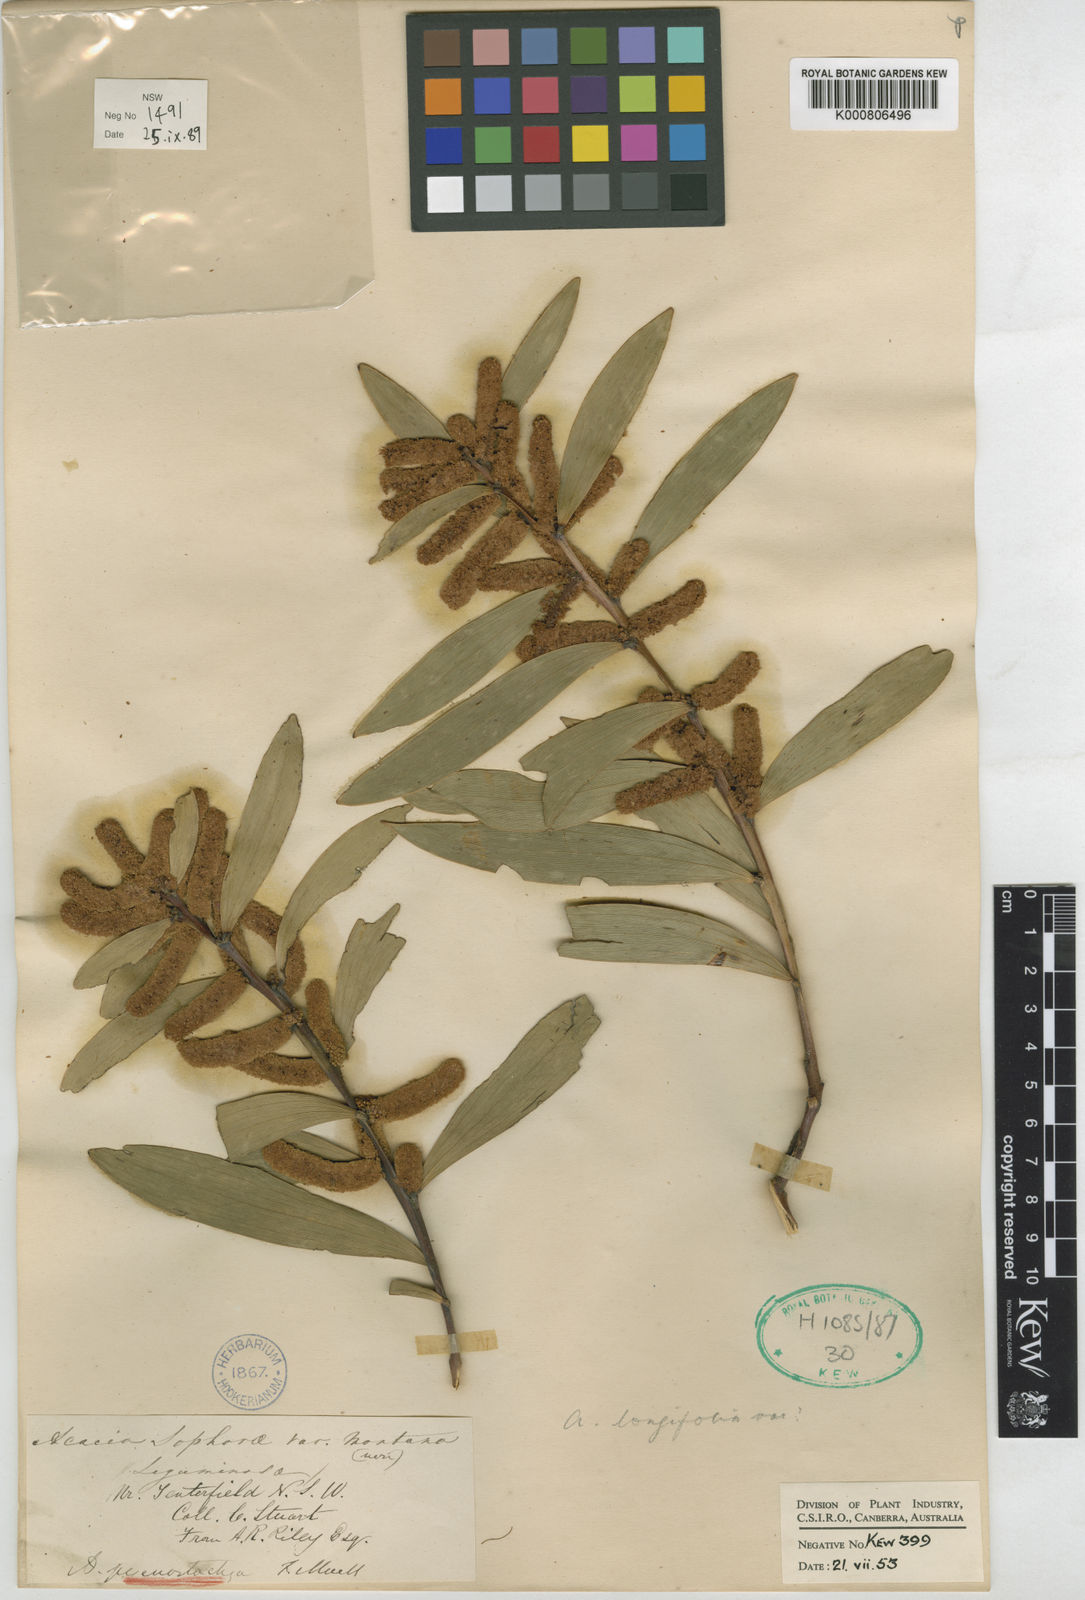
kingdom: Plantae
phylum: Tracheophyta
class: Magnoliopsida
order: Fabales
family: Fabaceae
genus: Acacia
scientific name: Acacia
